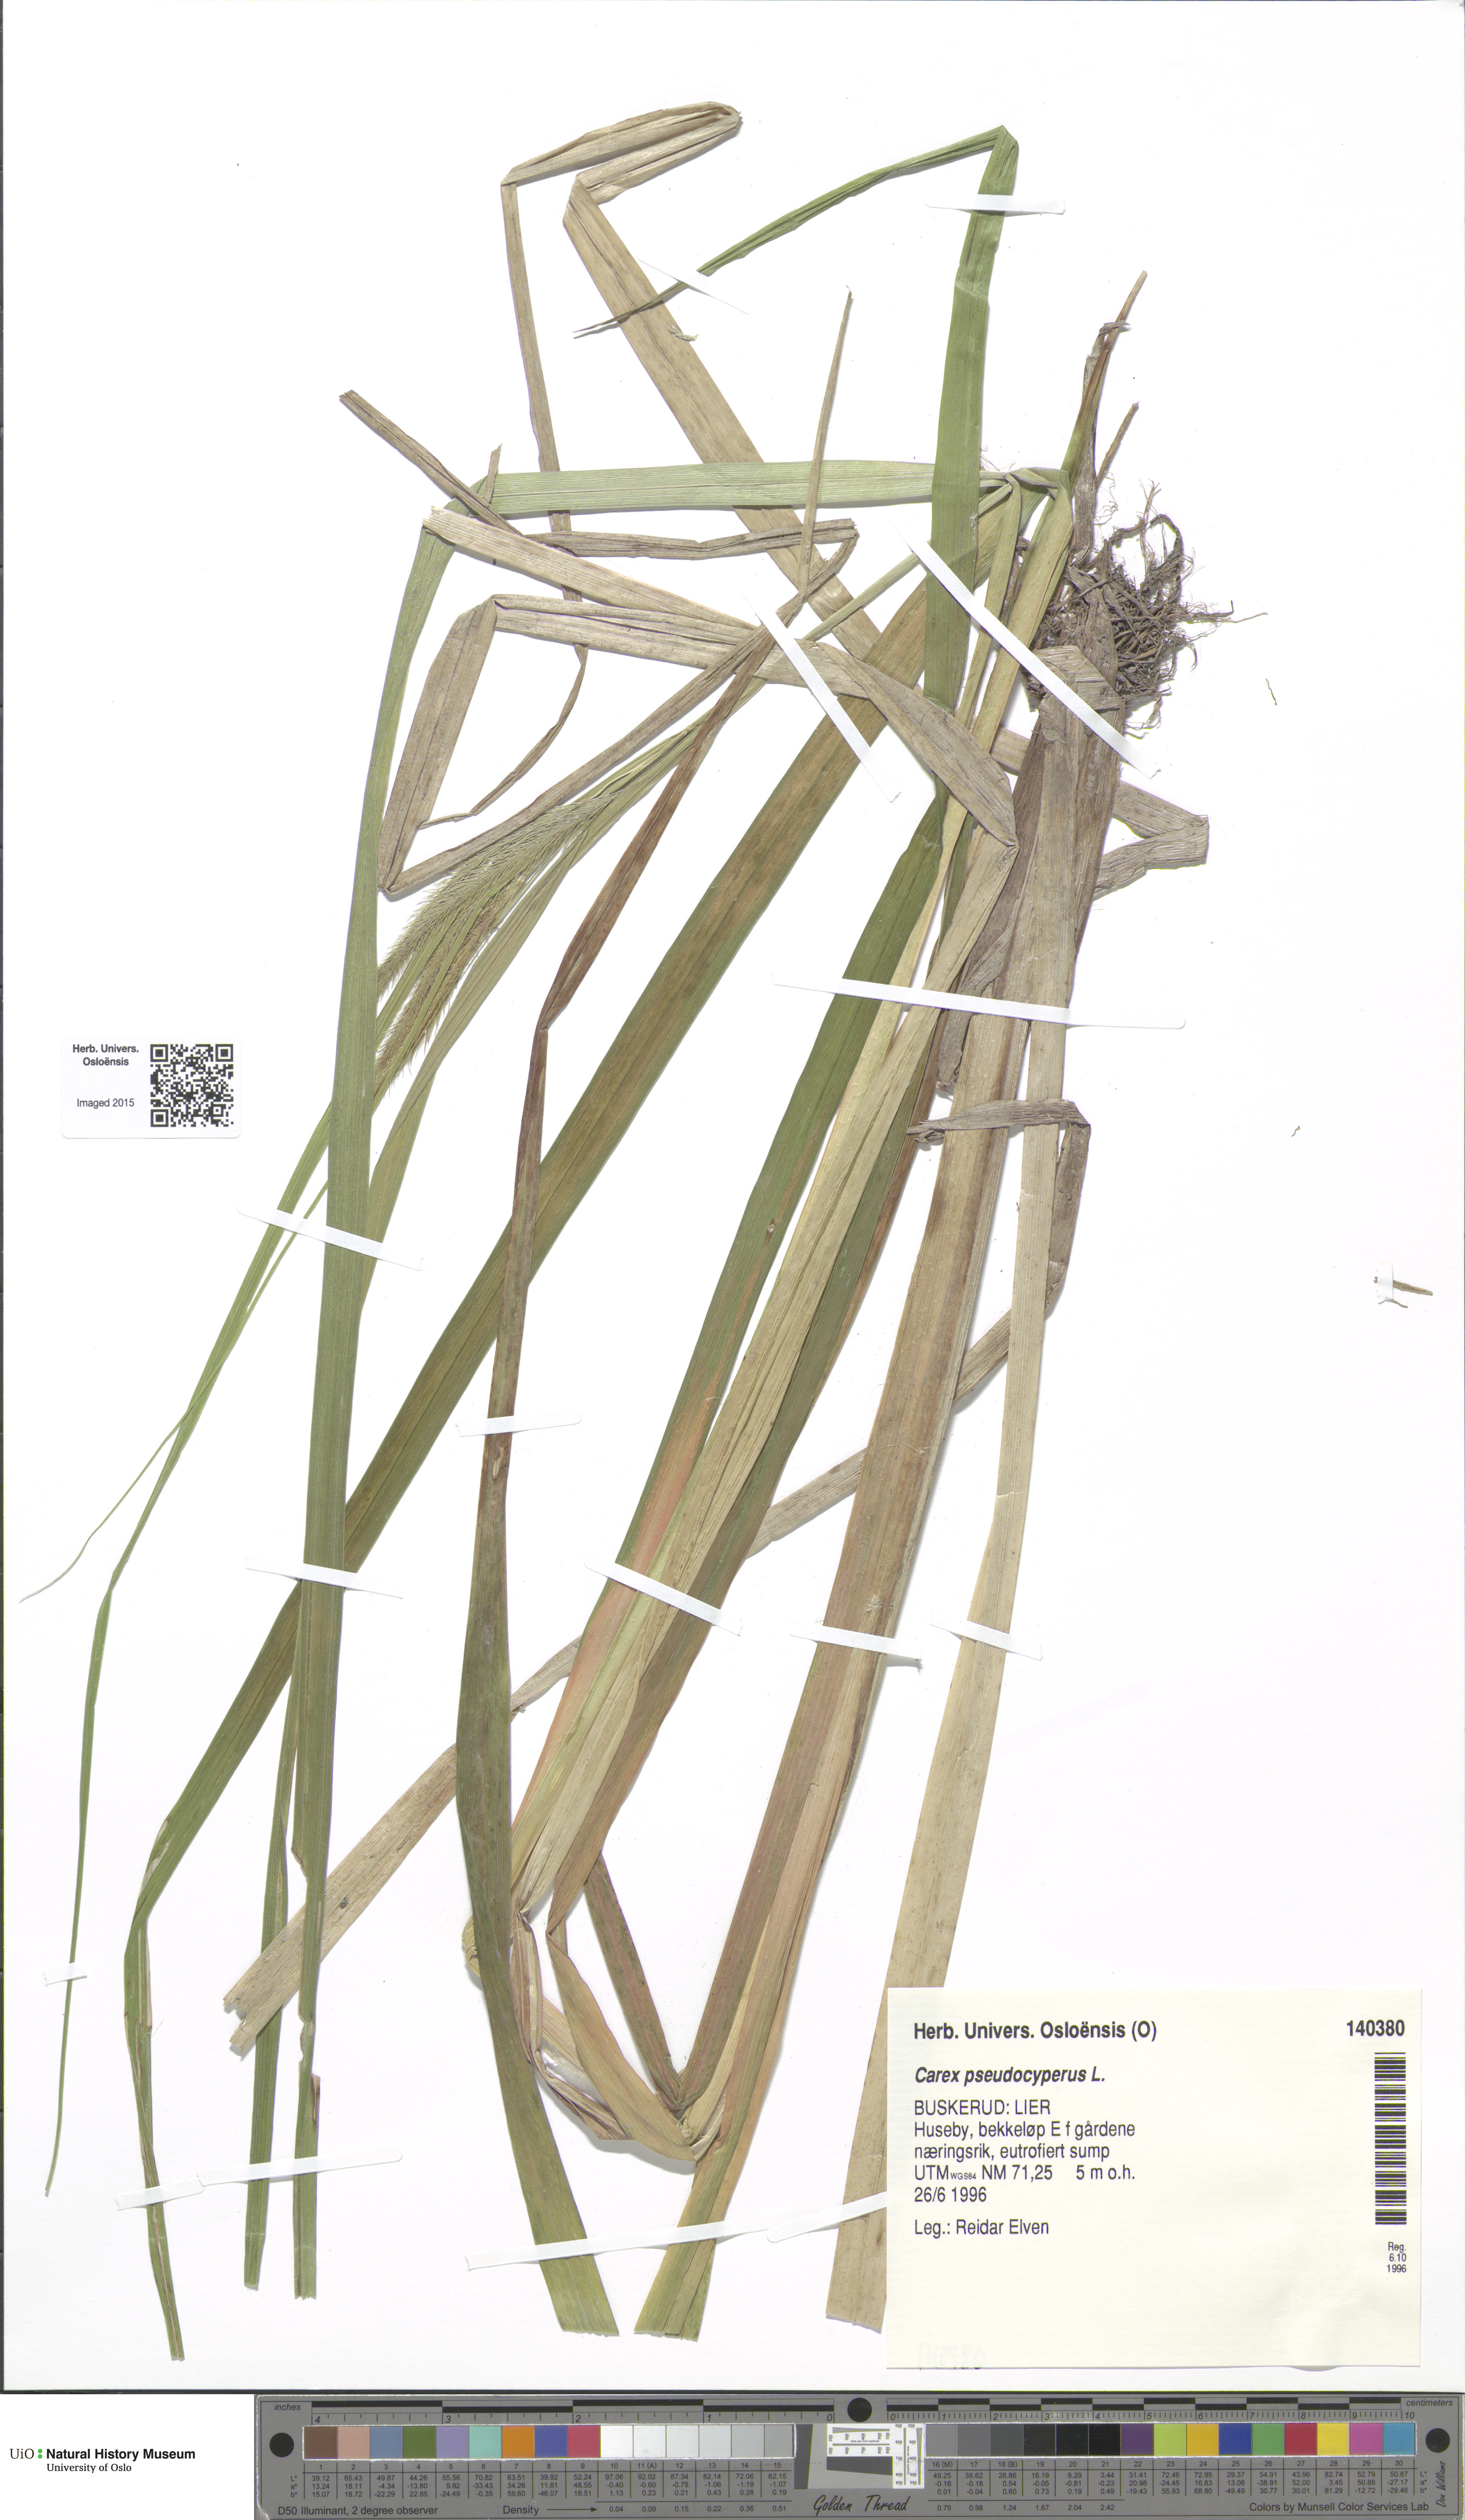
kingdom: Plantae
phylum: Tracheophyta
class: Liliopsida
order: Poales
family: Cyperaceae
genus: Carex
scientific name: Carex pseudocyperus
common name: Cyperus sedge
